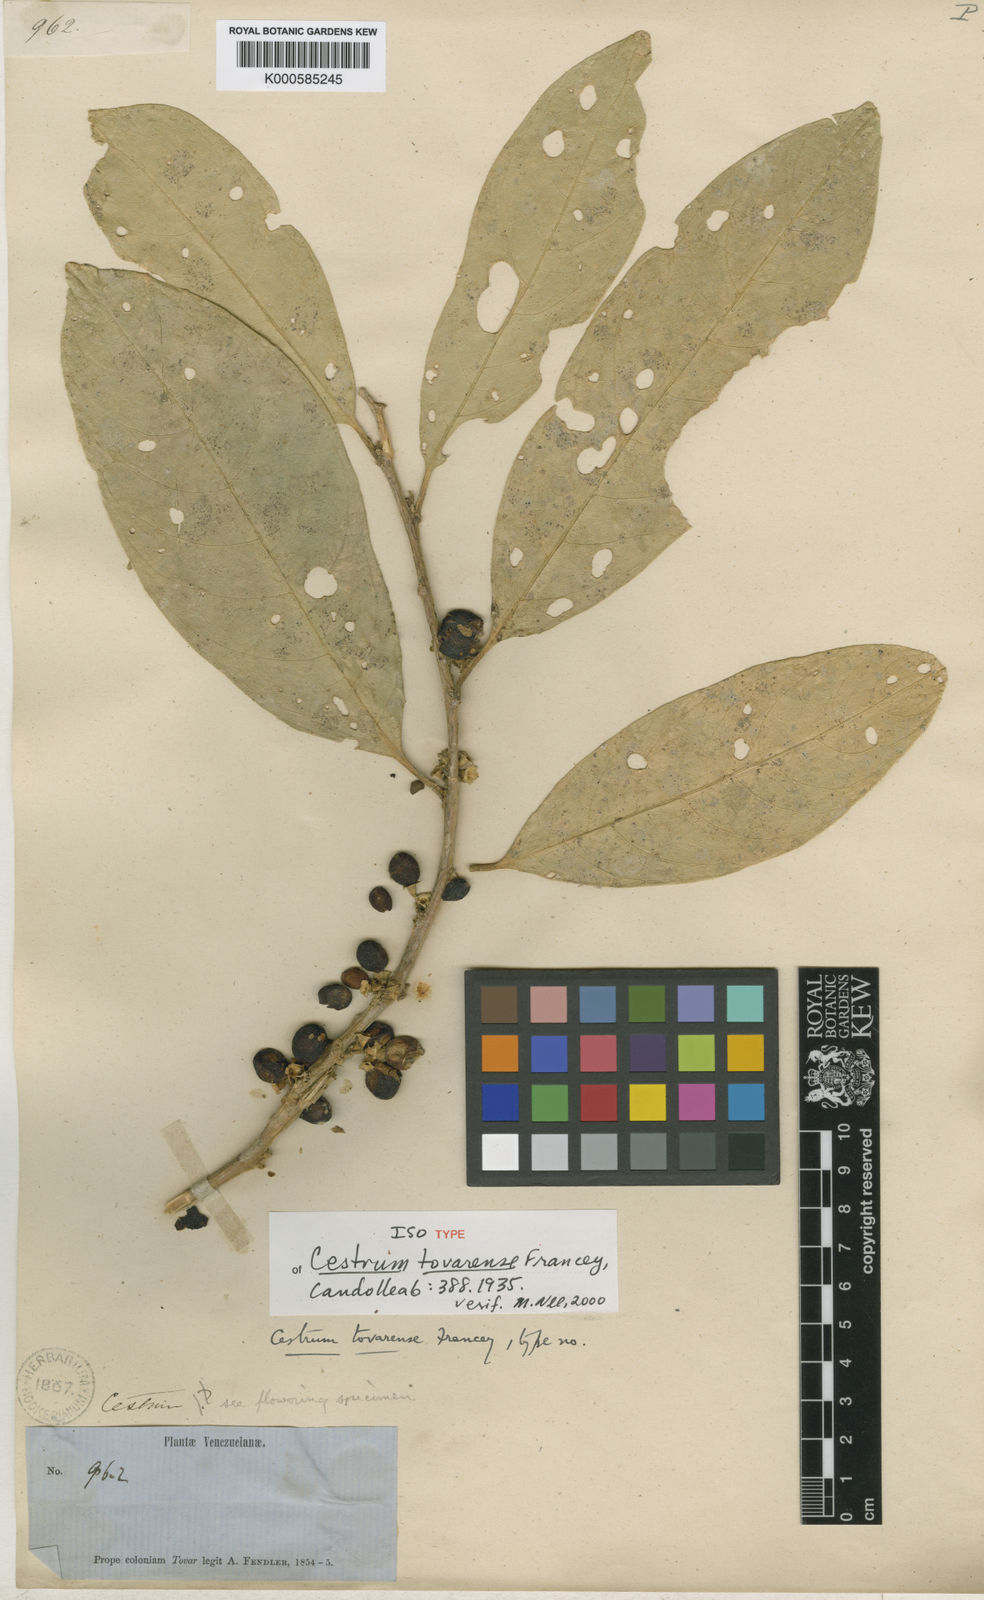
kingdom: Plantae
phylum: Tracheophyta
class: Magnoliopsida
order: Solanales
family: Solanaceae
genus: Cestrum
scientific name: Cestrum potaliifolium
